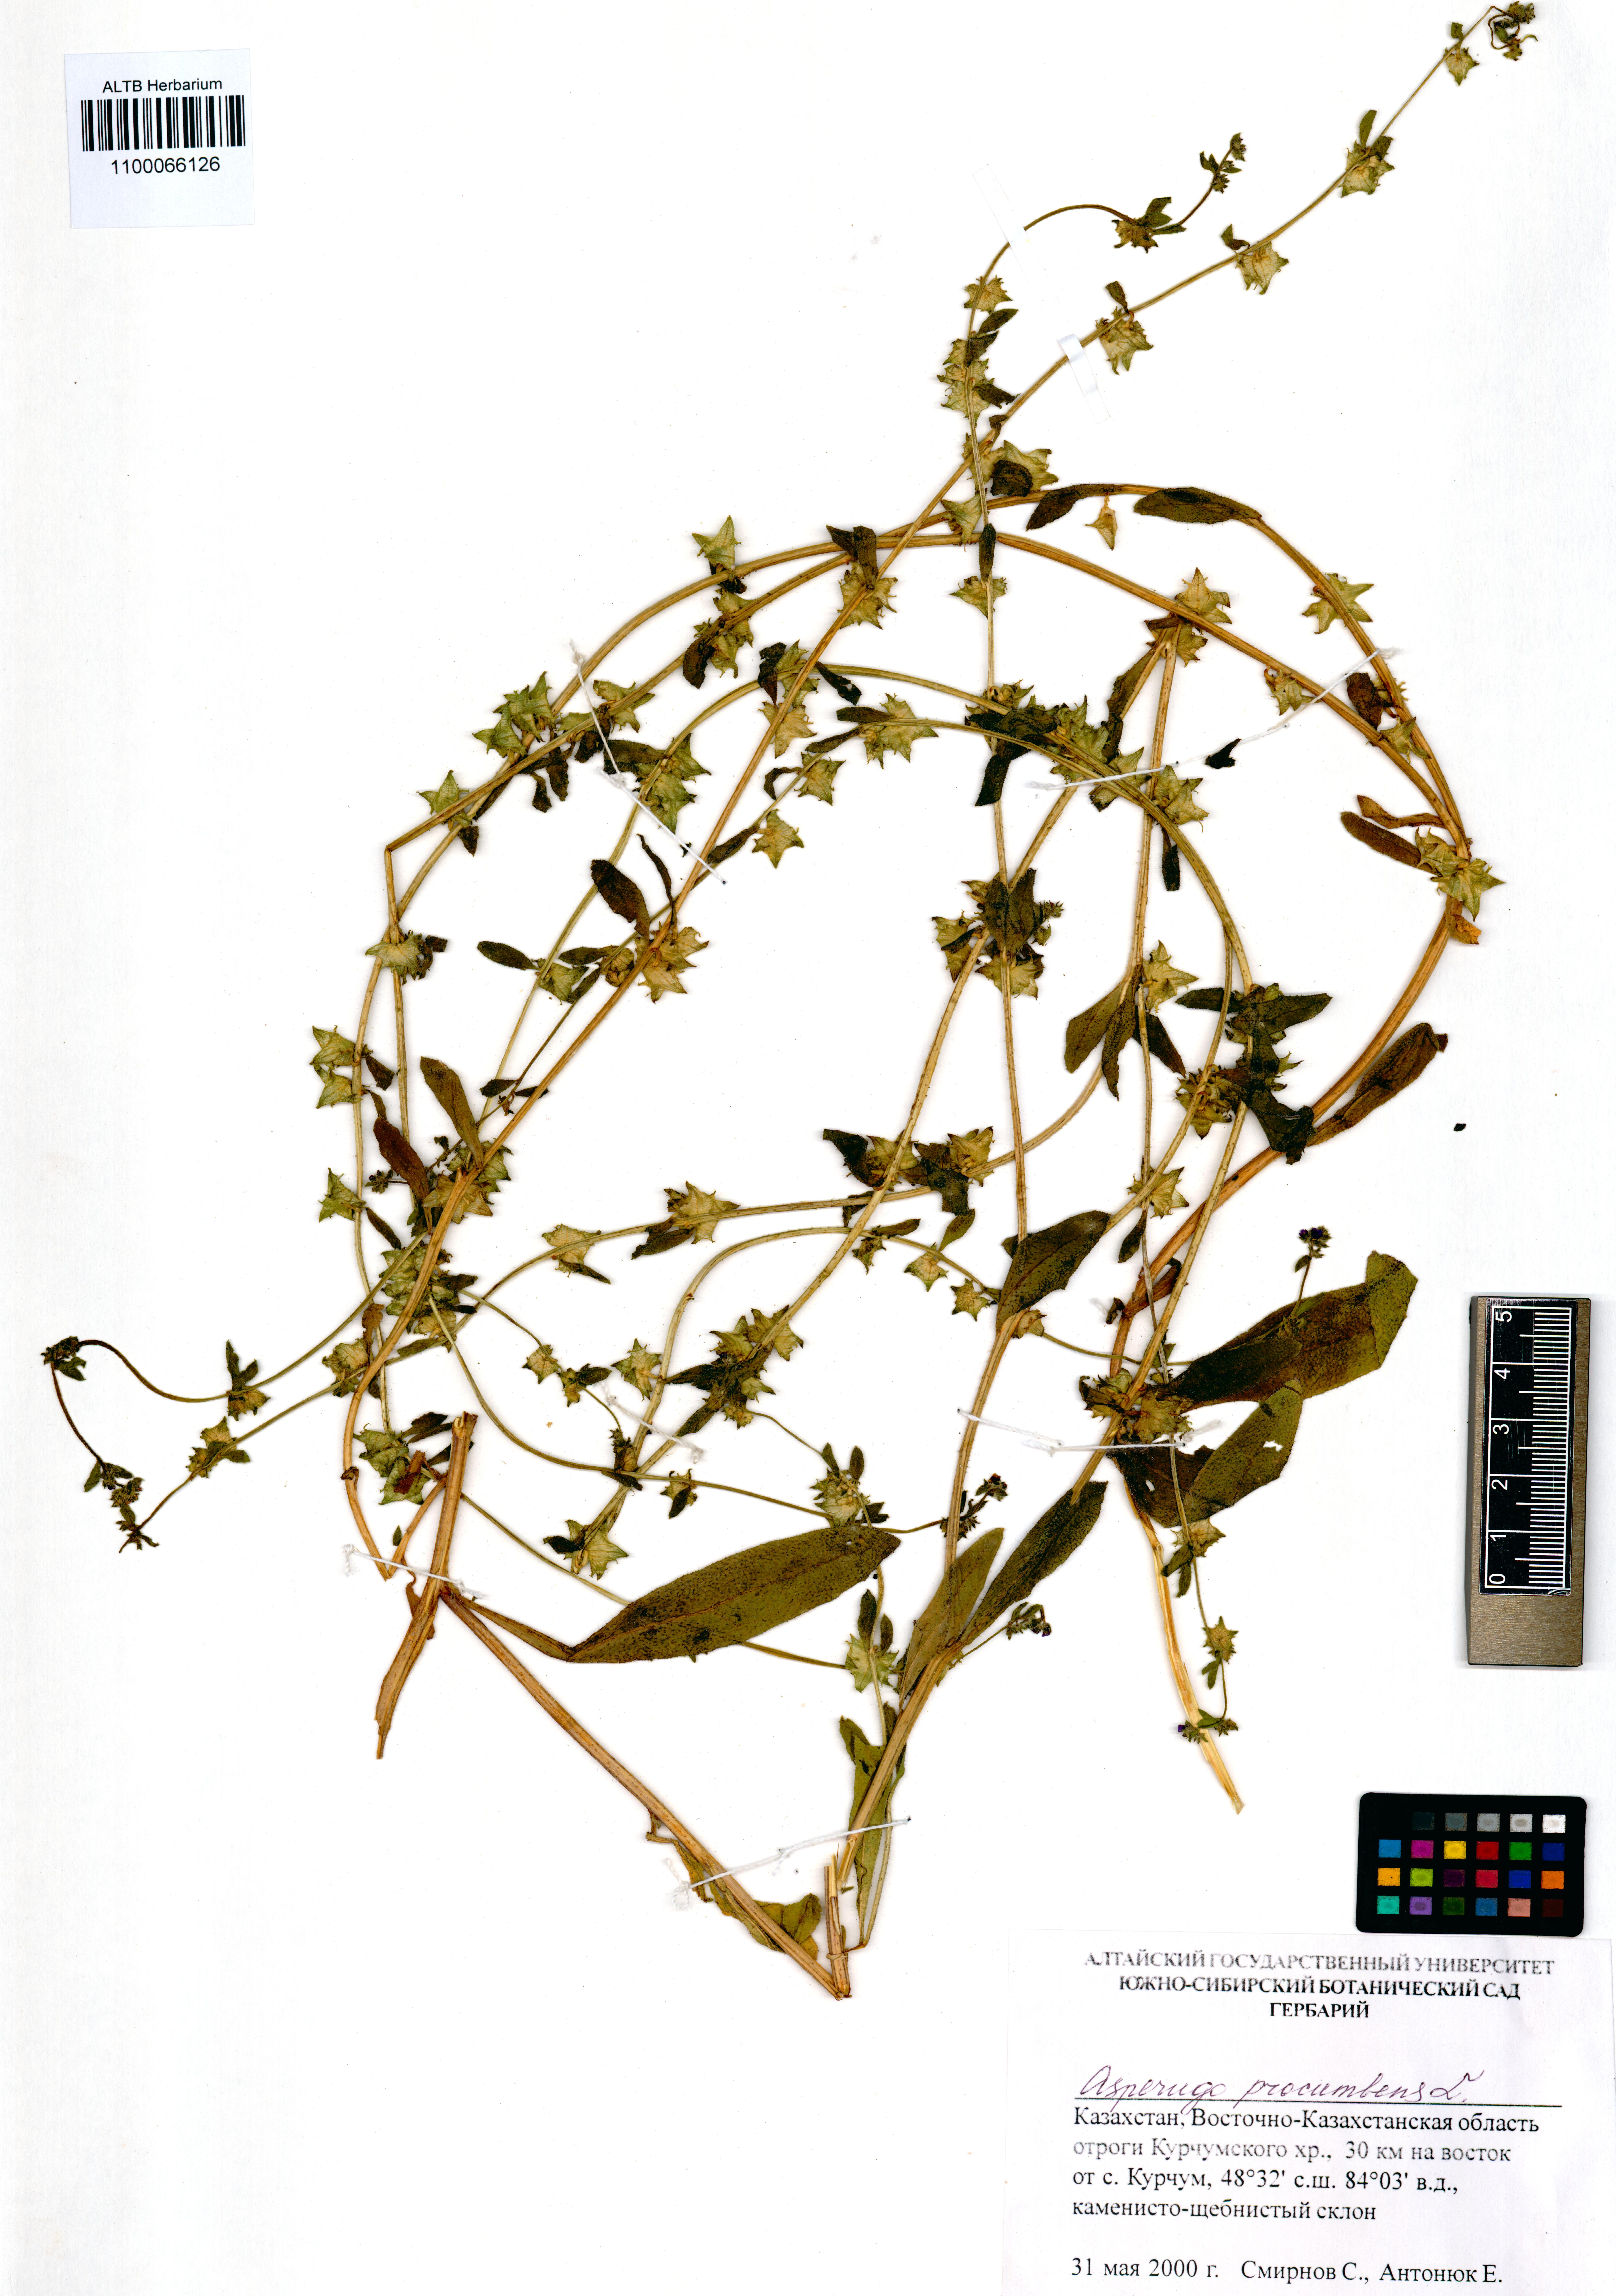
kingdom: Plantae
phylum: Tracheophyta
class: Magnoliopsida
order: Boraginales
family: Boraginaceae
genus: Asperugo
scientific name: Asperugo procumbens
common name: Madwort
